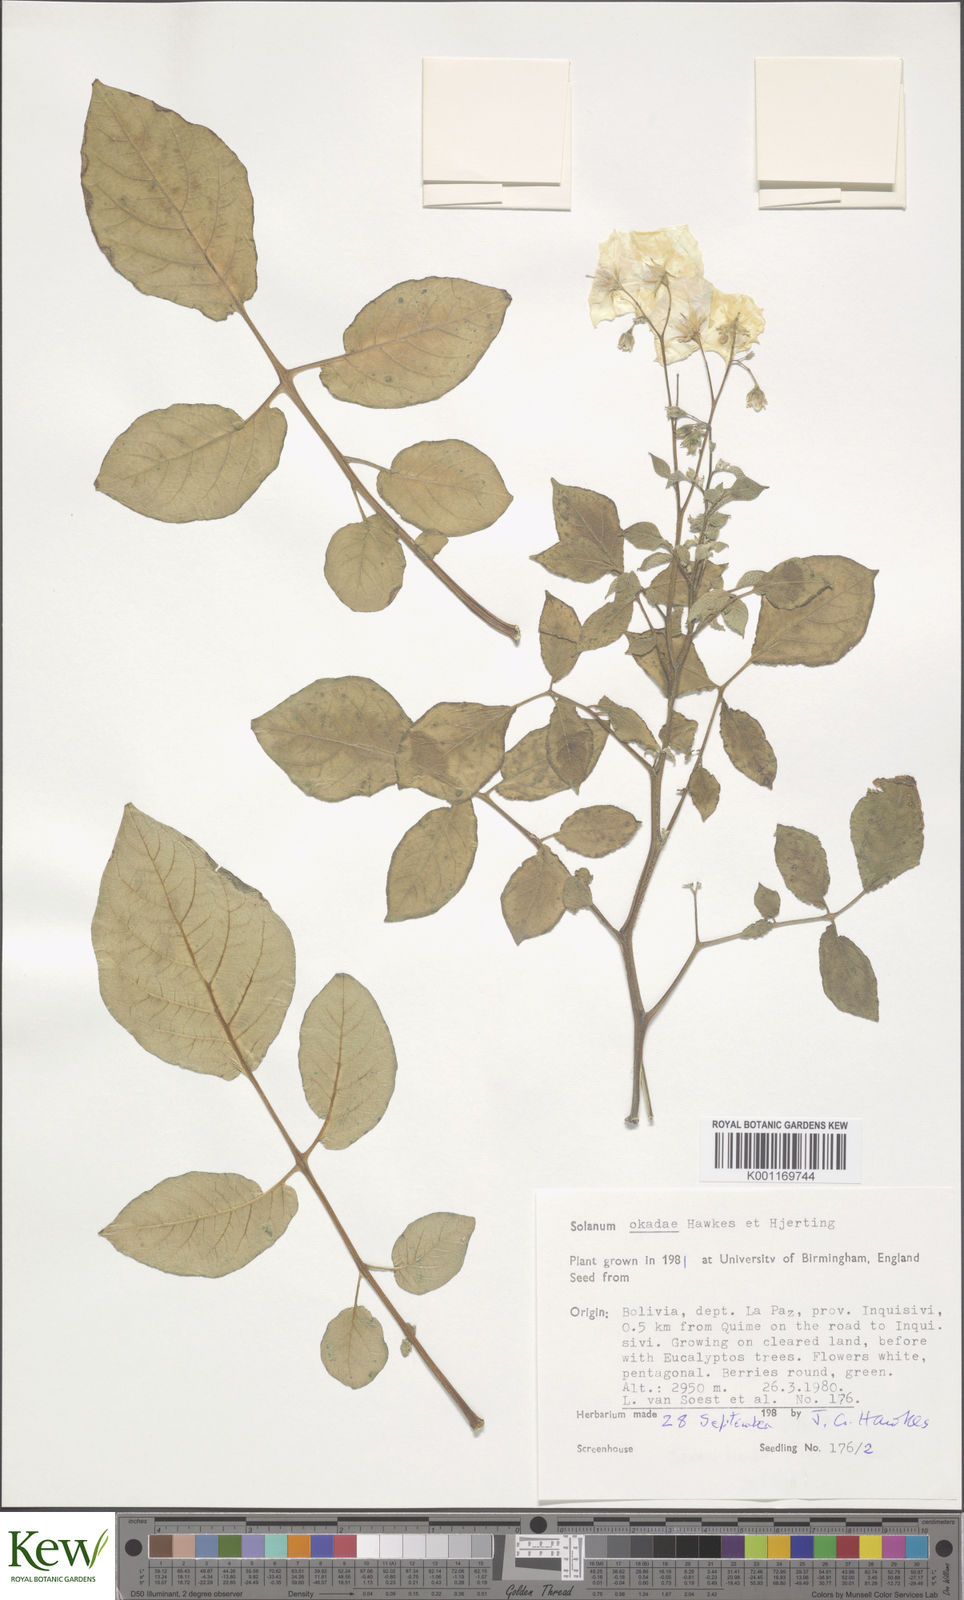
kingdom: Plantae
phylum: Tracheophyta
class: Magnoliopsida
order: Solanales
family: Solanaceae
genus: Solanum
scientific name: Solanum okadae
